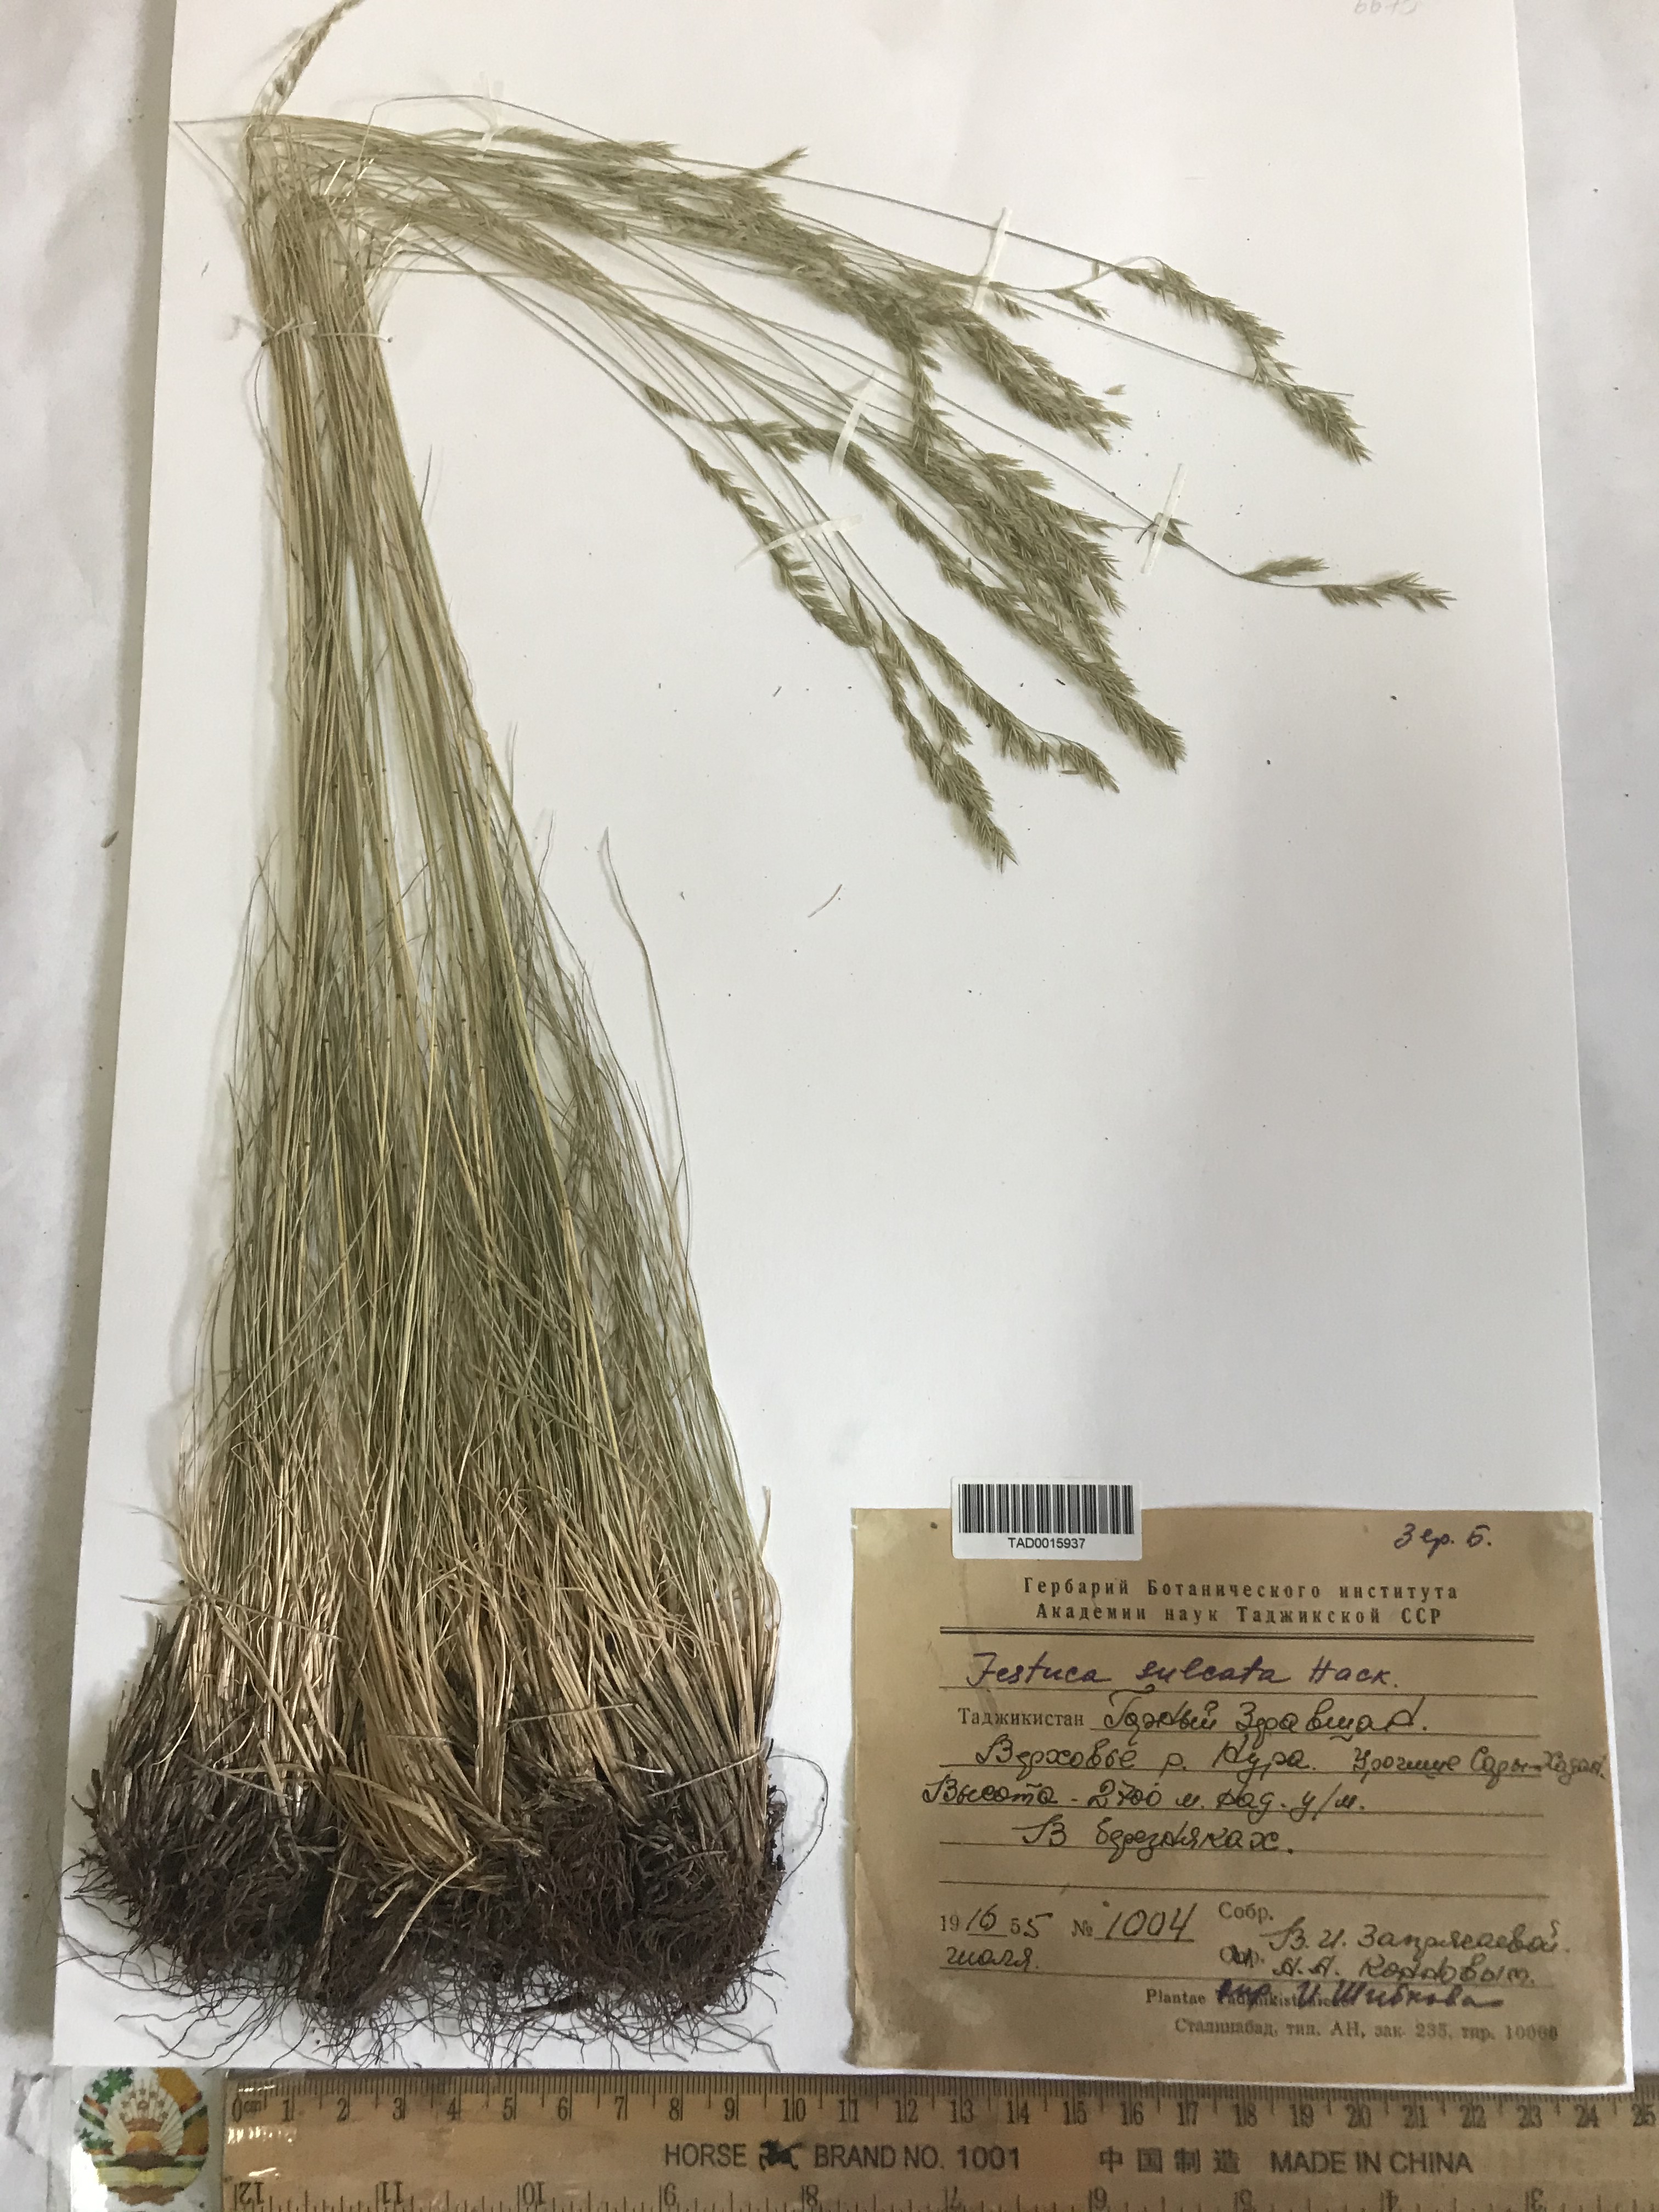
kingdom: Plantae
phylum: Tracheophyta
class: Liliopsida
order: Poales
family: Poaceae
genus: Festuca
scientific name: Festuca sulcata
